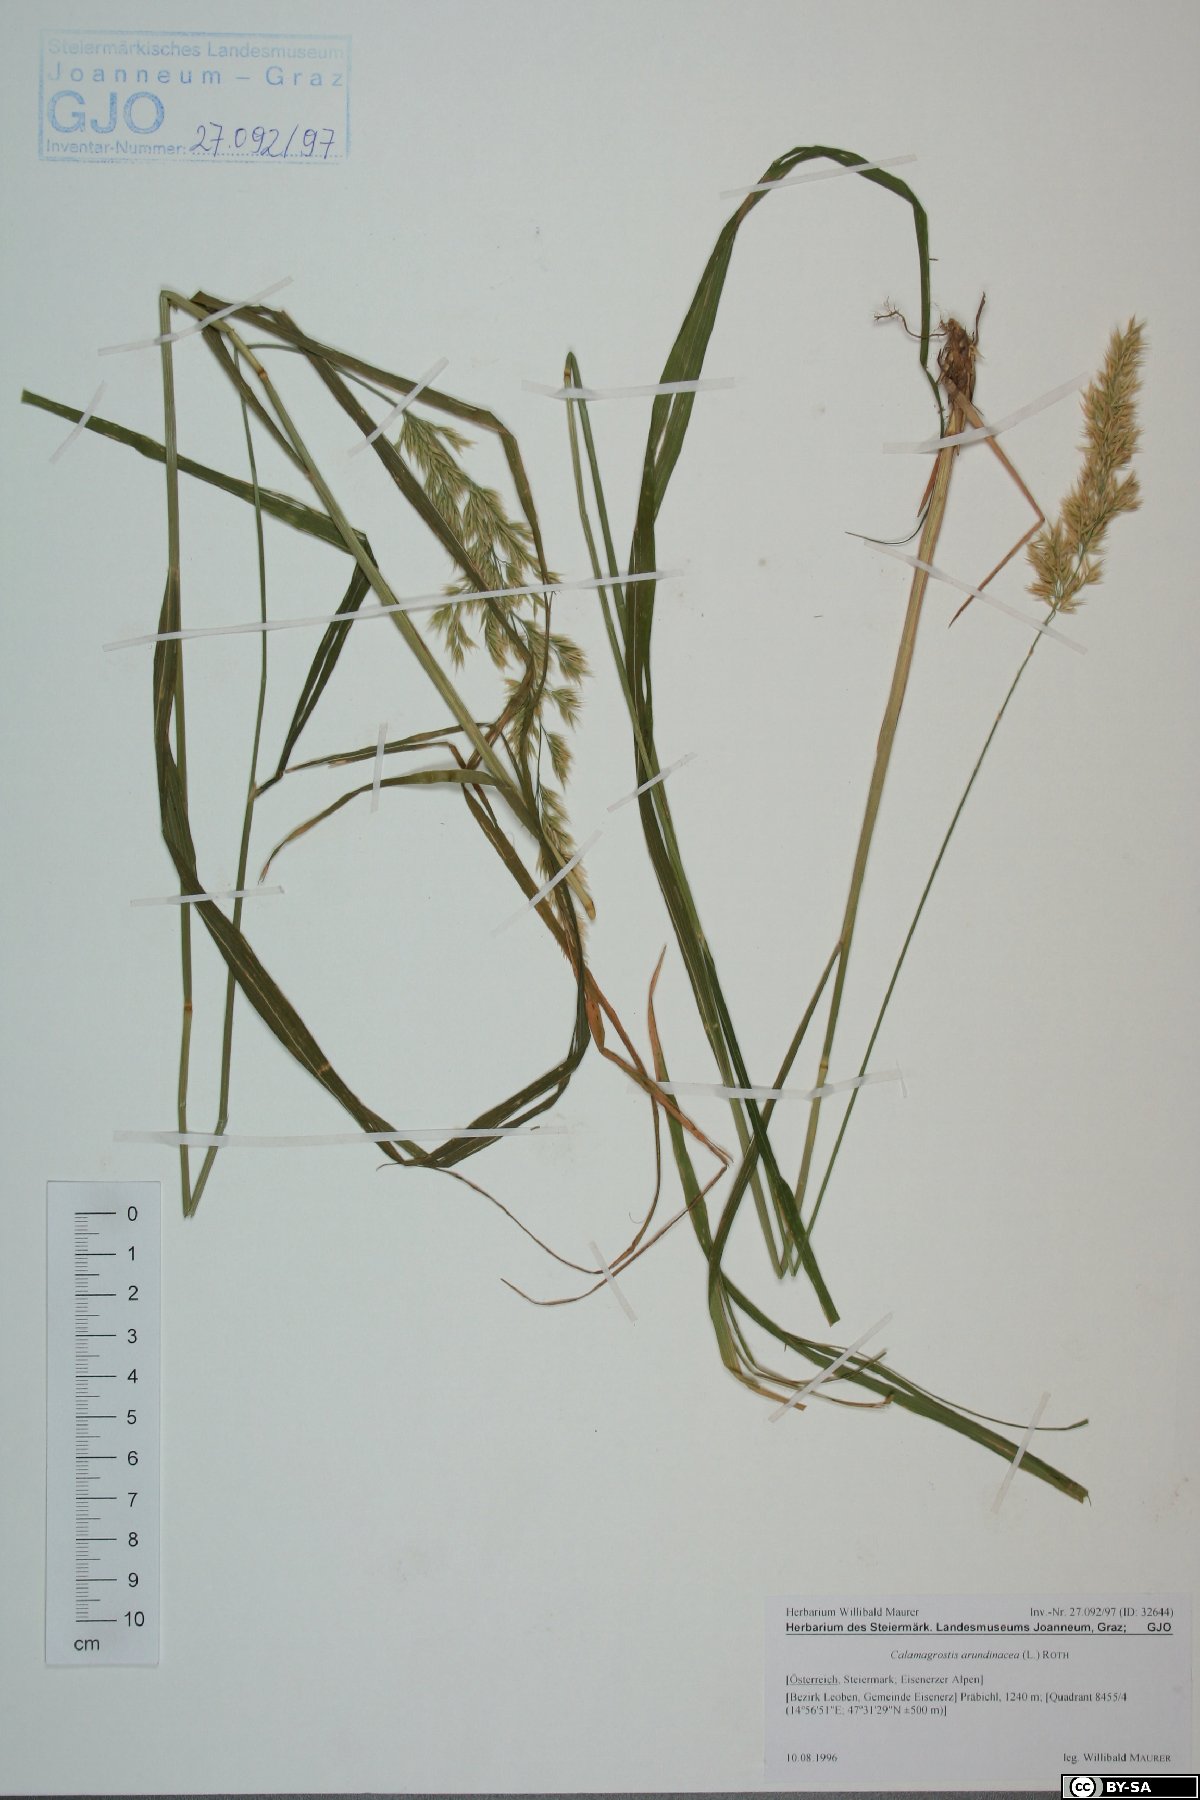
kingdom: Plantae
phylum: Tracheophyta
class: Liliopsida
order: Poales
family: Poaceae
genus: Calamagrostis
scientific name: Calamagrostis arundinacea
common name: Metskastik
